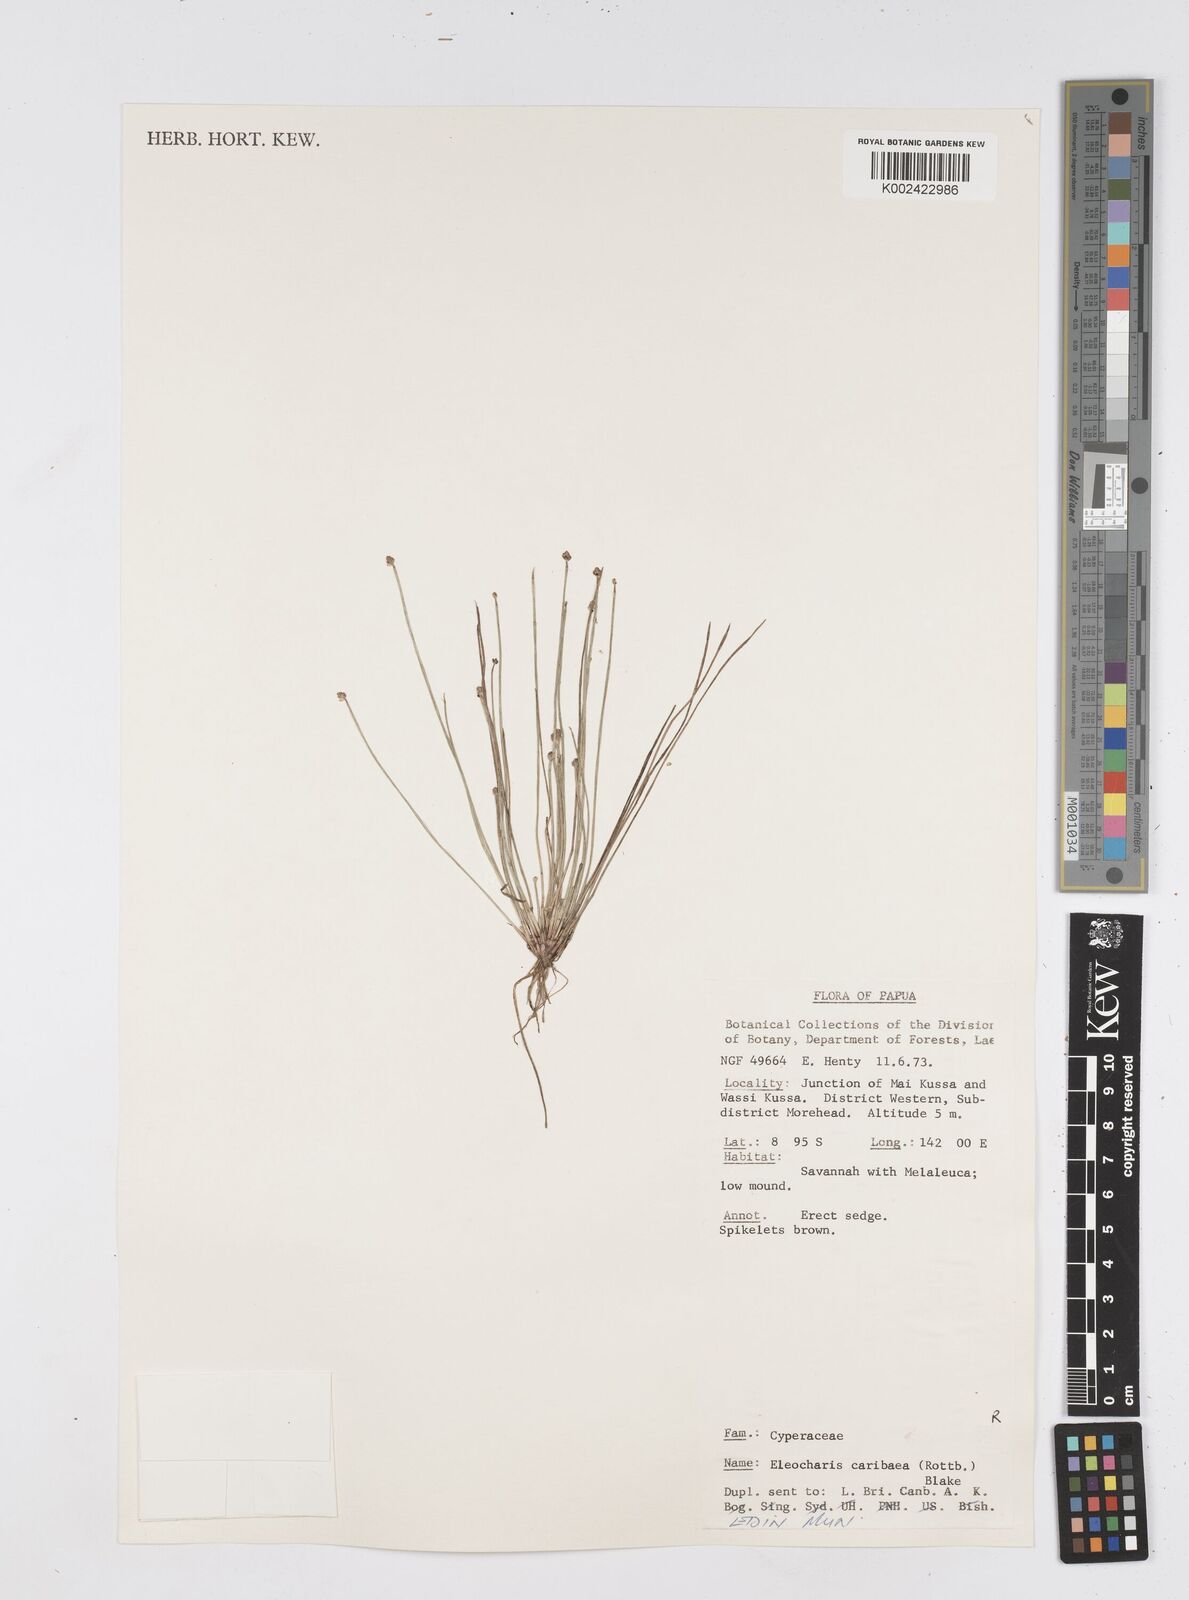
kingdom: Plantae
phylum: Tracheophyta
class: Liliopsida
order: Poales
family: Cyperaceae
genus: Eleocharis
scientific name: Eleocharis geniculata
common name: Canada spikesedge
